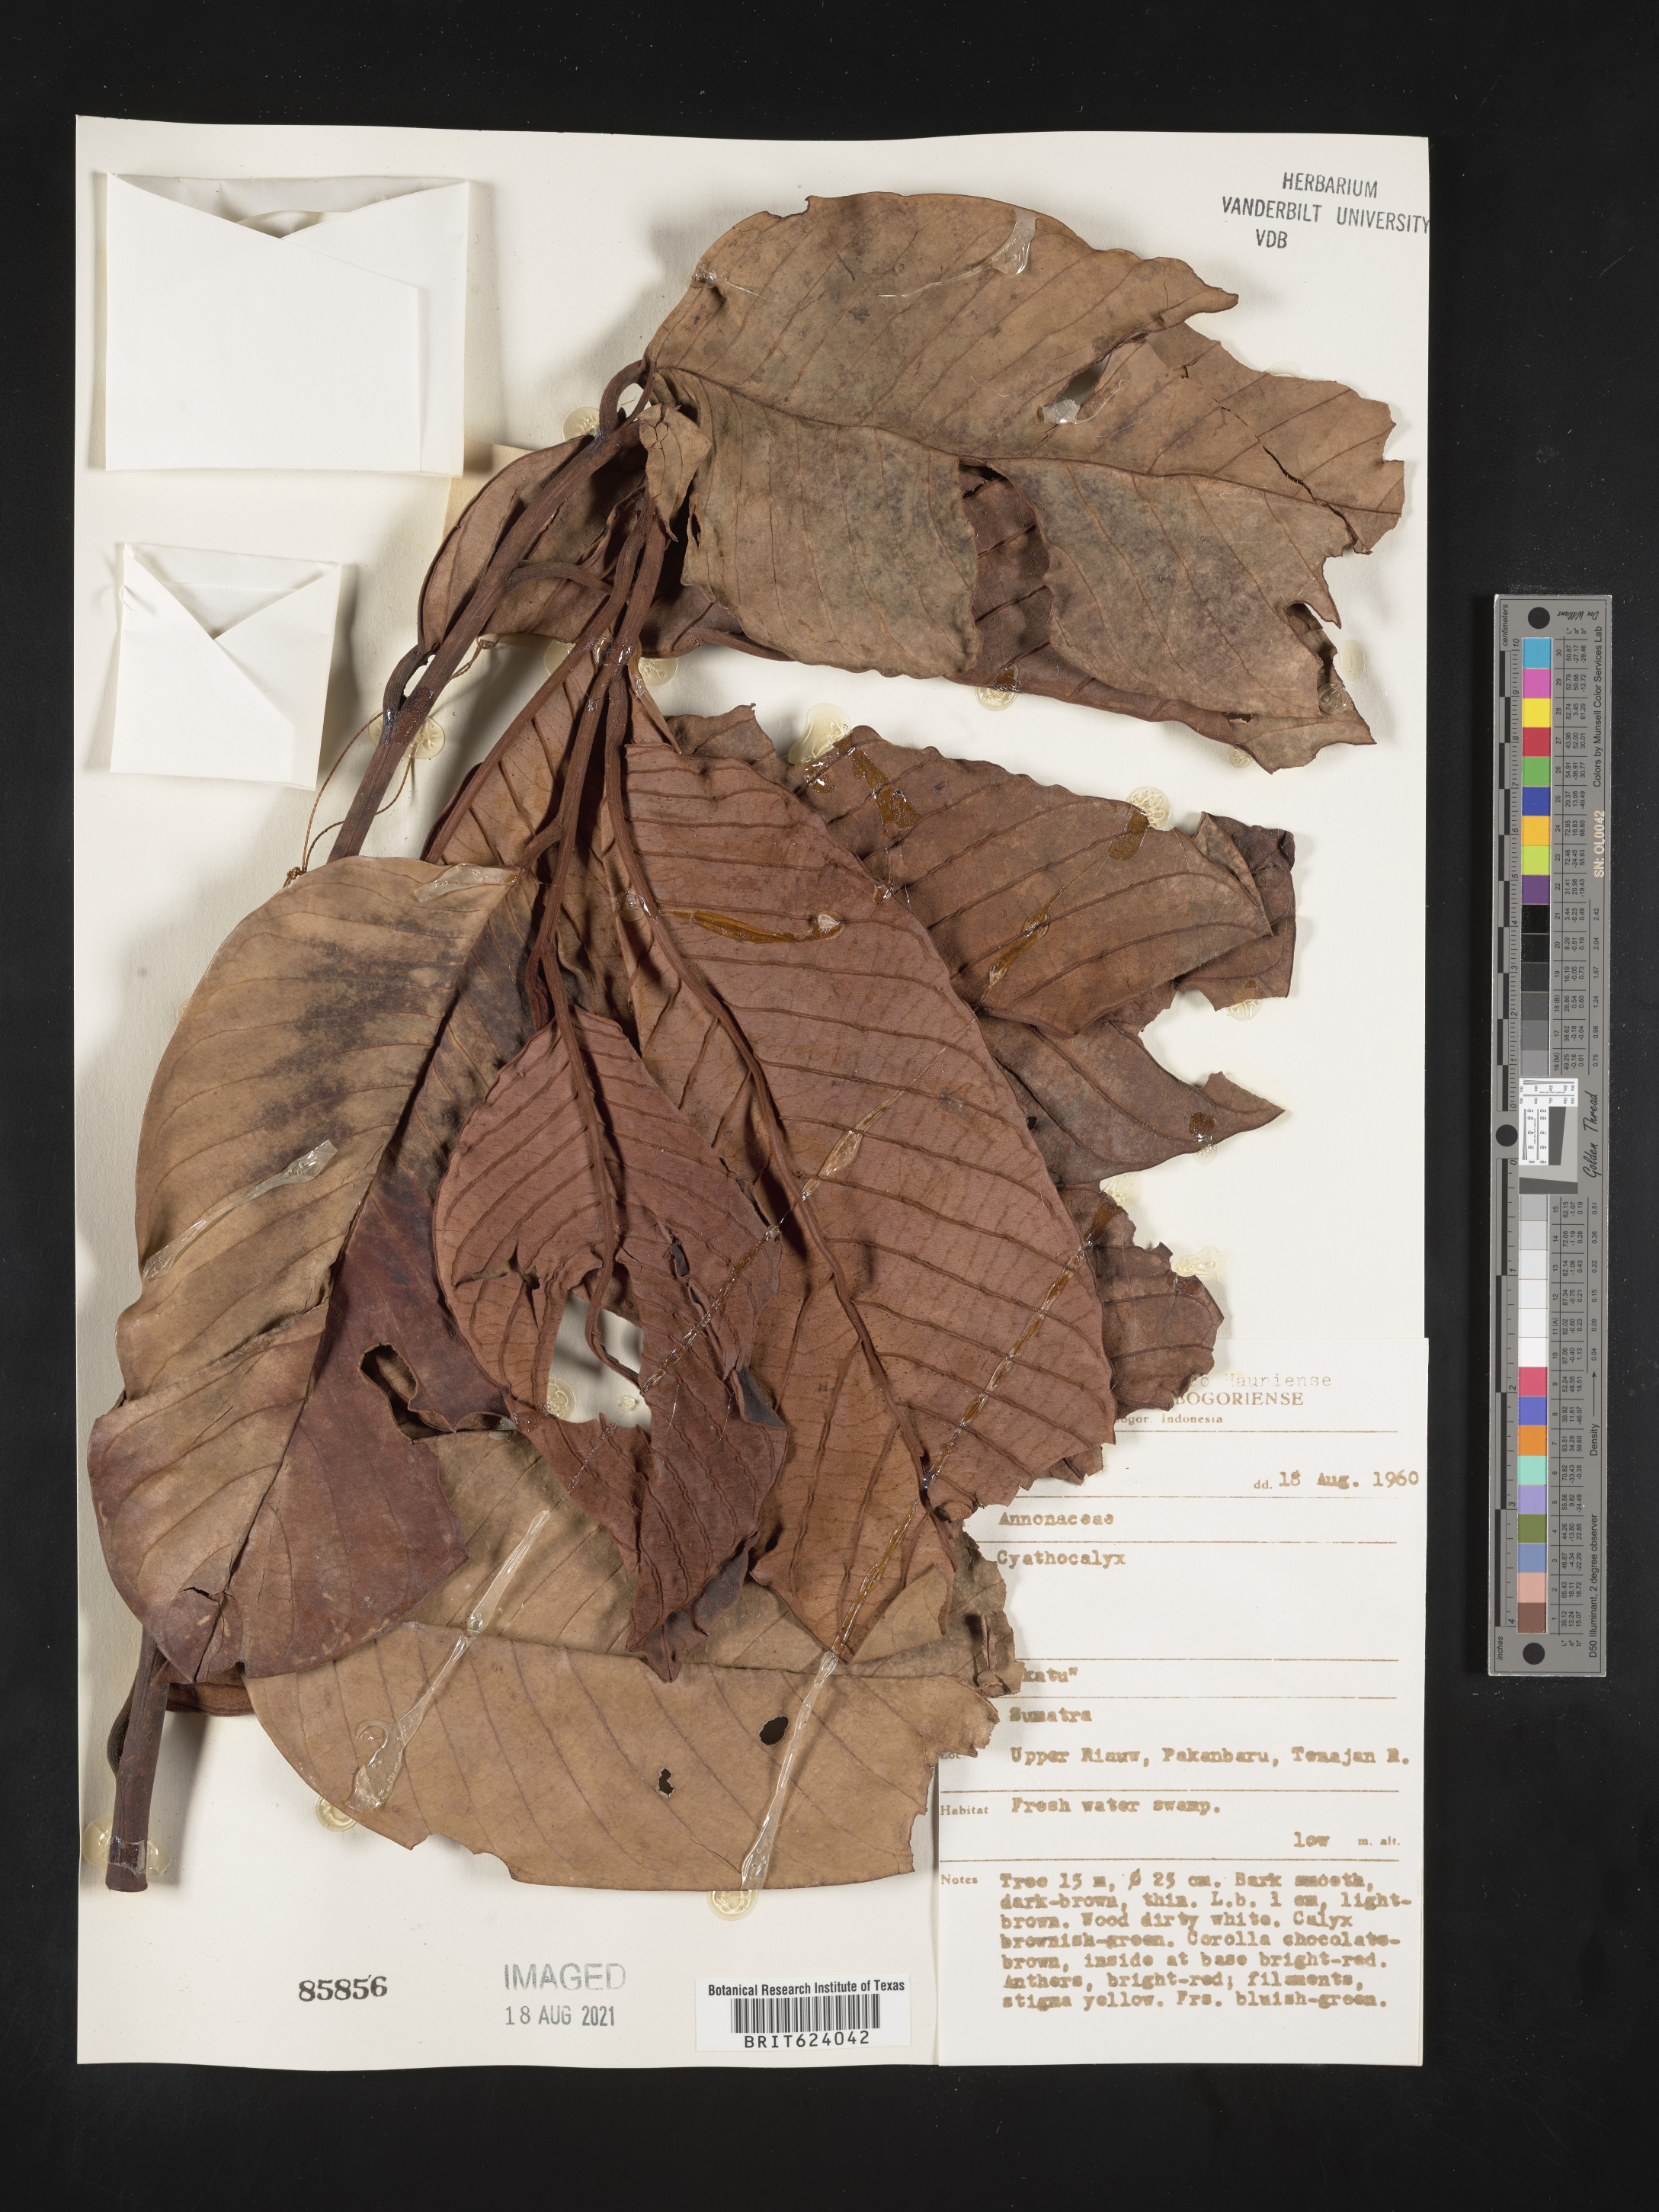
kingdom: Plantae
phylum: Tracheophyta
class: Magnoliopsida
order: Magnoliales
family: Annonaceae
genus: Cyathocalyx
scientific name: Cyathocalyx
